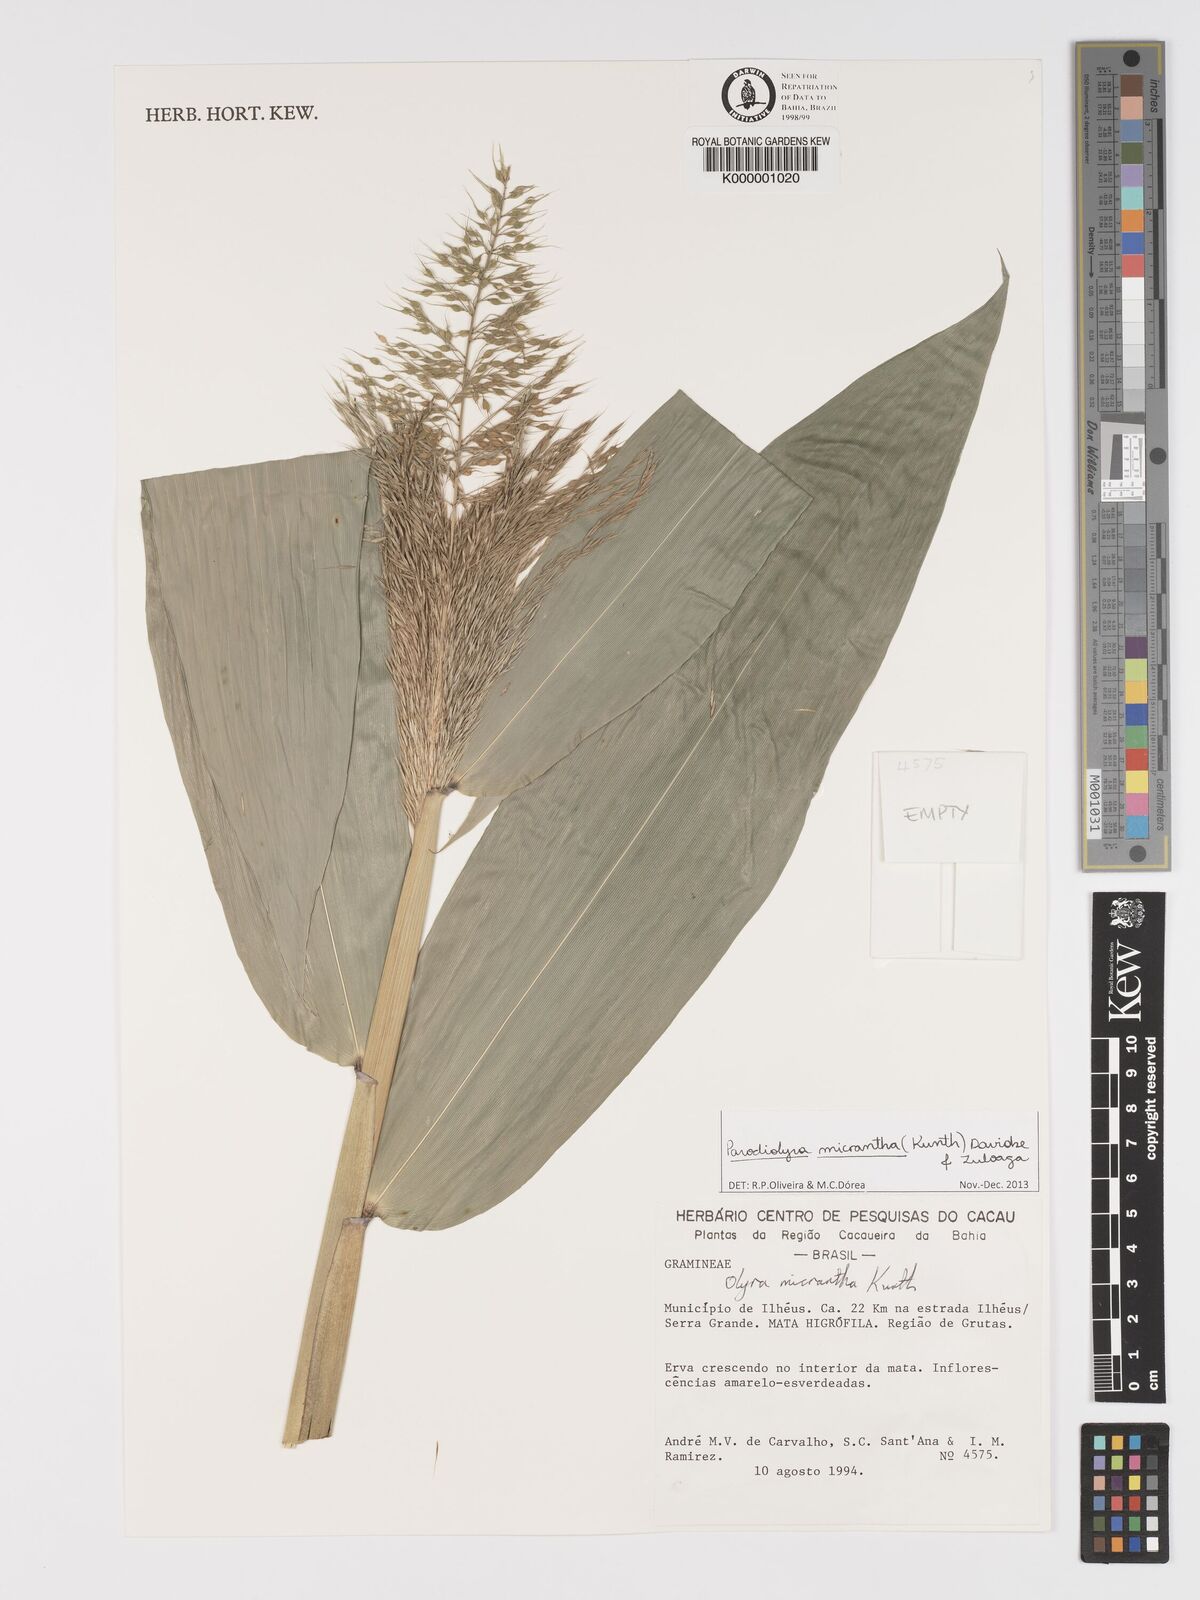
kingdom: Plantae
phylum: Tracheophyta
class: Liliopsida
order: Poales
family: Poaceae
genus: Taquara
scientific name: Taquara micrantha
